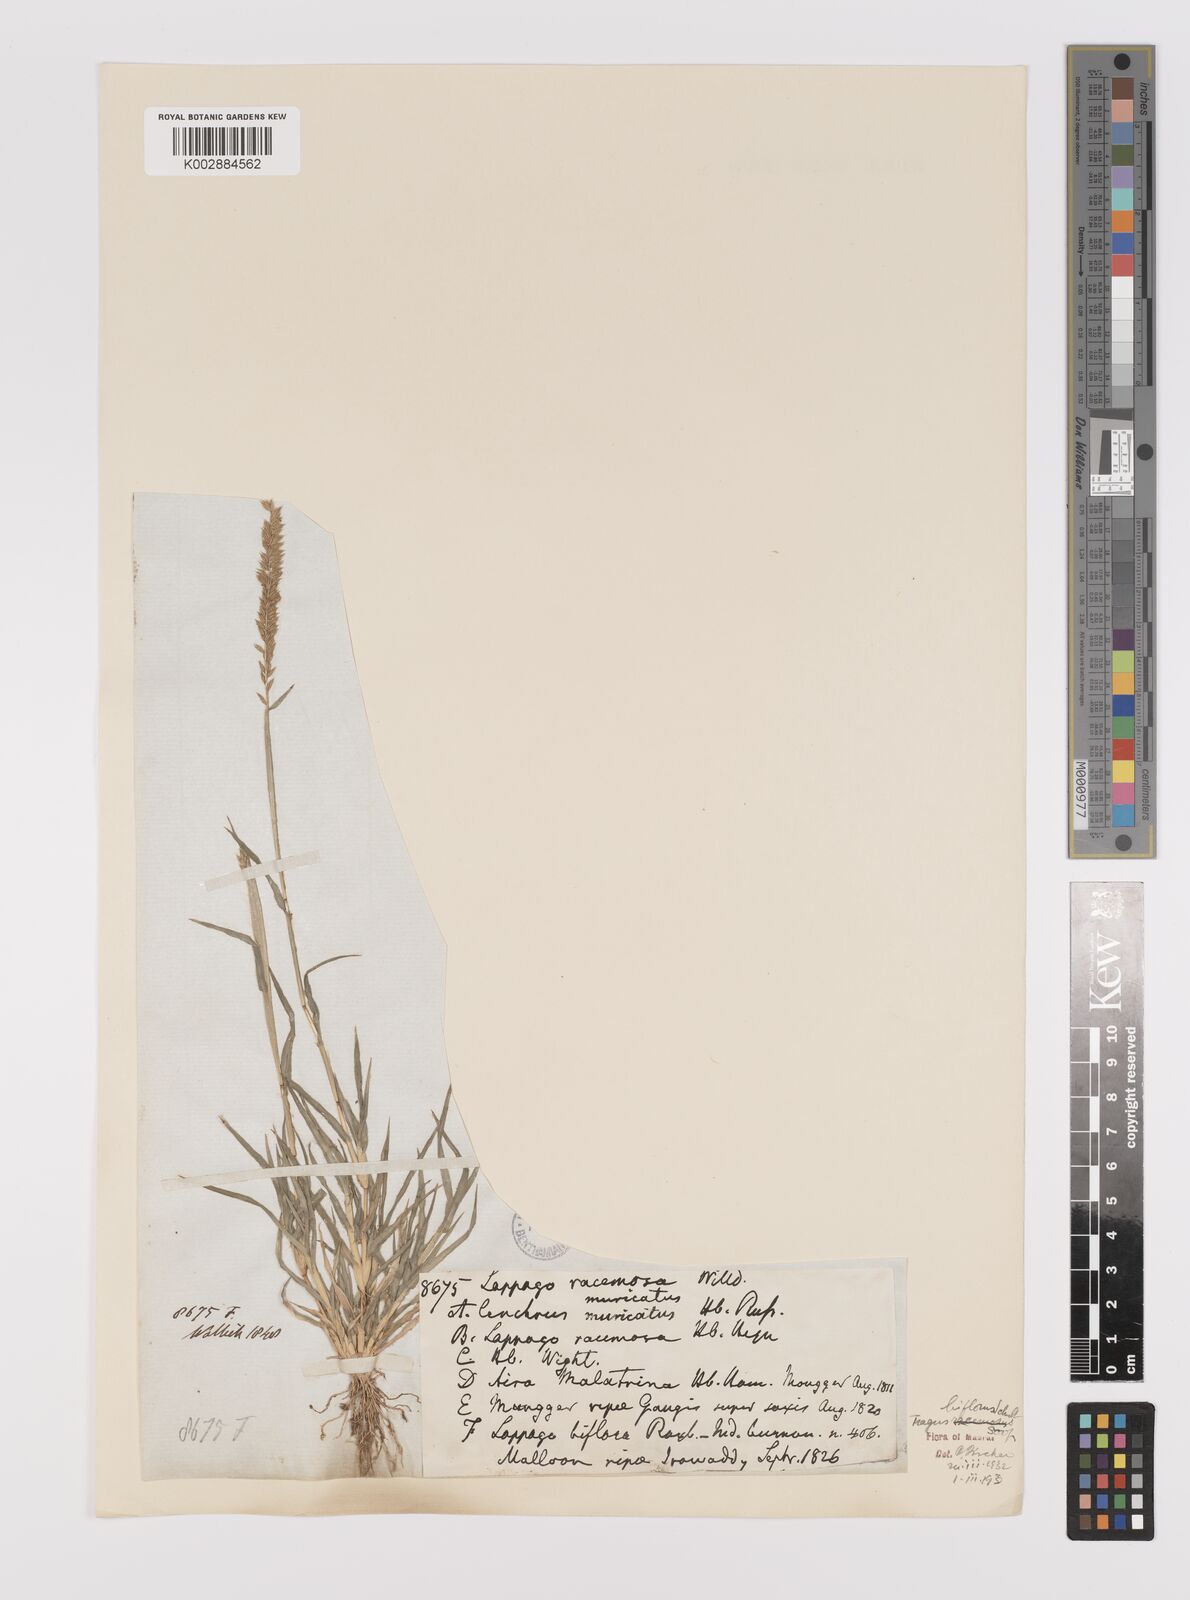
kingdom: Plantae
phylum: Tracheophyta
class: Liliopsida
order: Poales
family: Poaceae
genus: Tragus
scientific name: Tragus mongolorum
